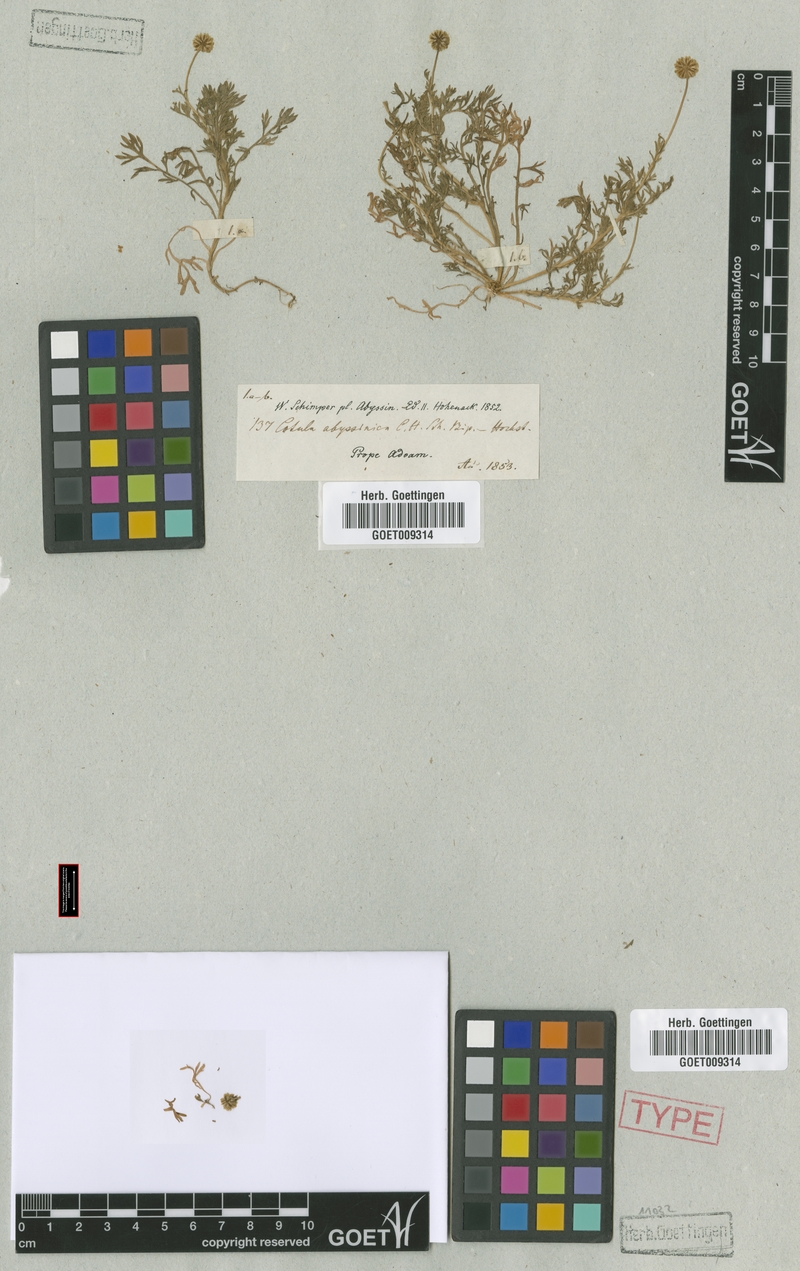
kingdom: Plantae
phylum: Tracheophyta
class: Magnoliopsida
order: Asterales
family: Asteraceae
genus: Cotula
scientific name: Cotula abyssinica
